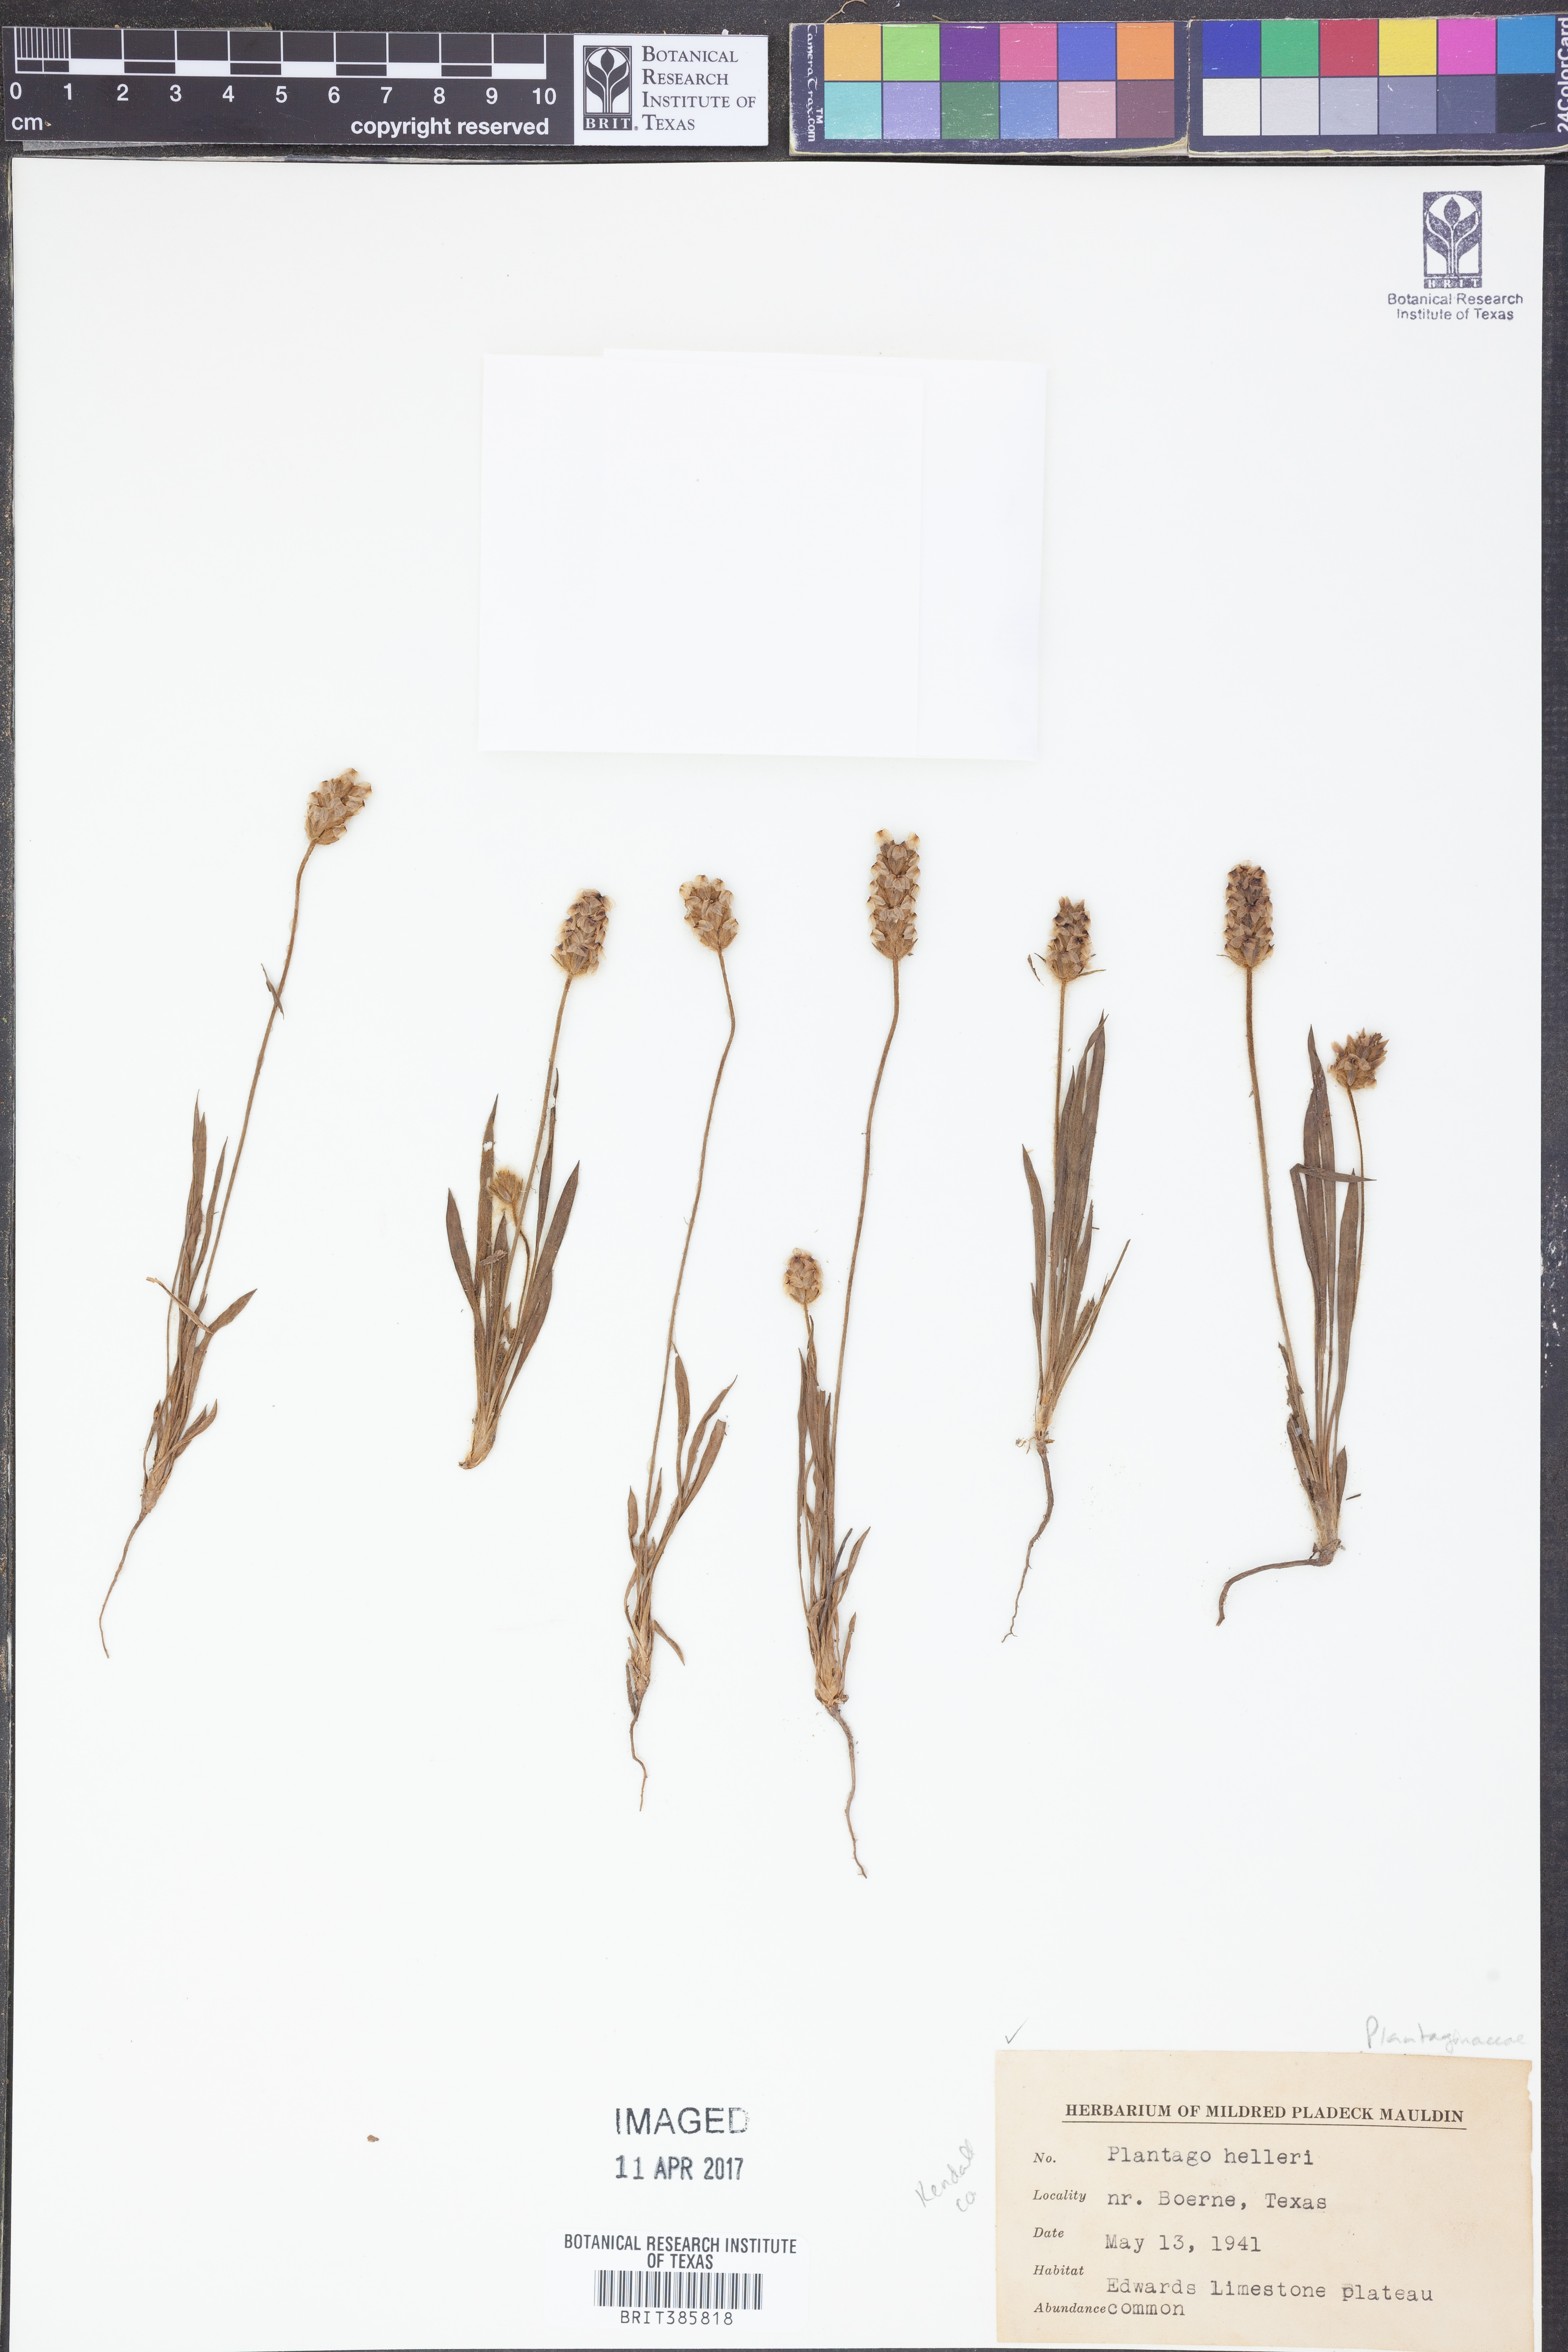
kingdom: Plantae
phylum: Tracheophyta
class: Magnoliopsida
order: Lamiales
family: Plantaginaceae
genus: Plantago
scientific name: Plantago helleri
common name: Heller's plantain
